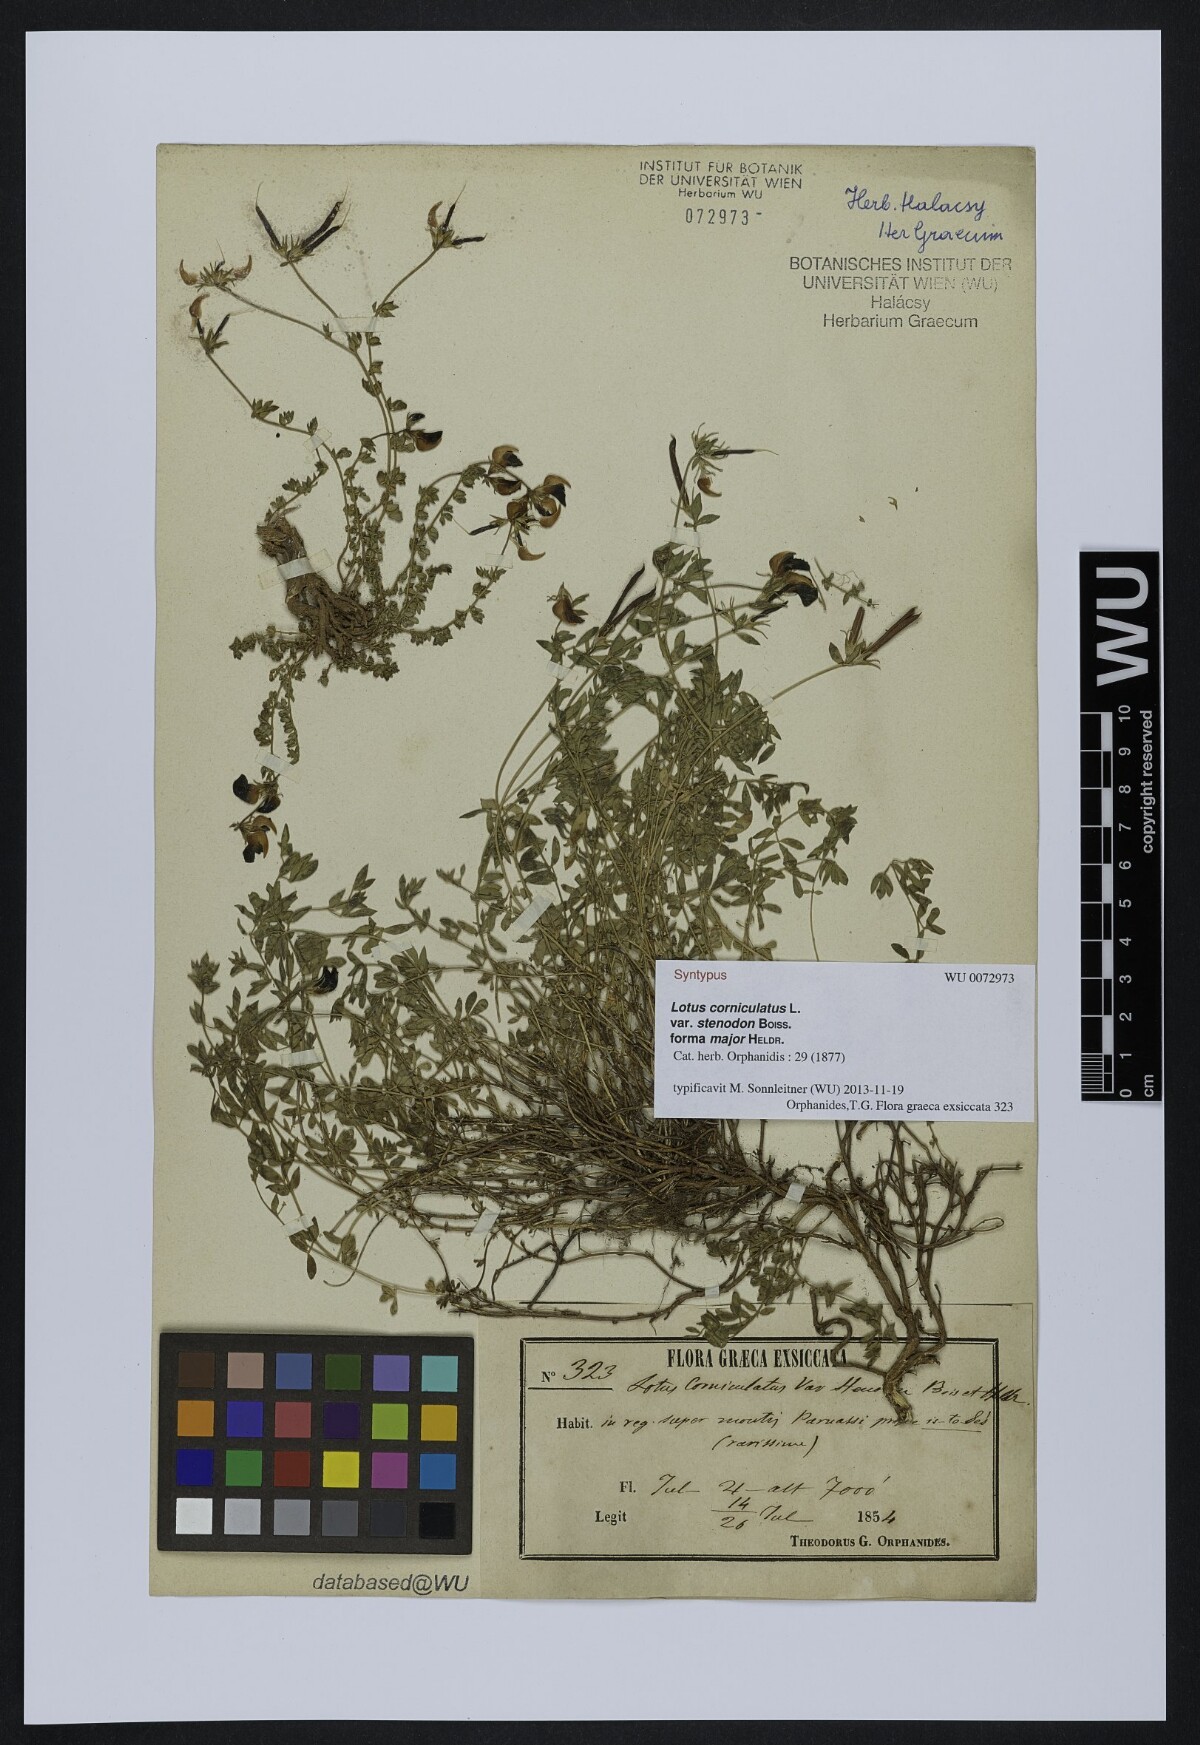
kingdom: Plantae
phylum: Tracheophyta
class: Magnoliopsida
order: Fabales
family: Fabaceae
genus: Lotus
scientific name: Lotus corniculatus
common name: Common bird's-foot-trefoil
